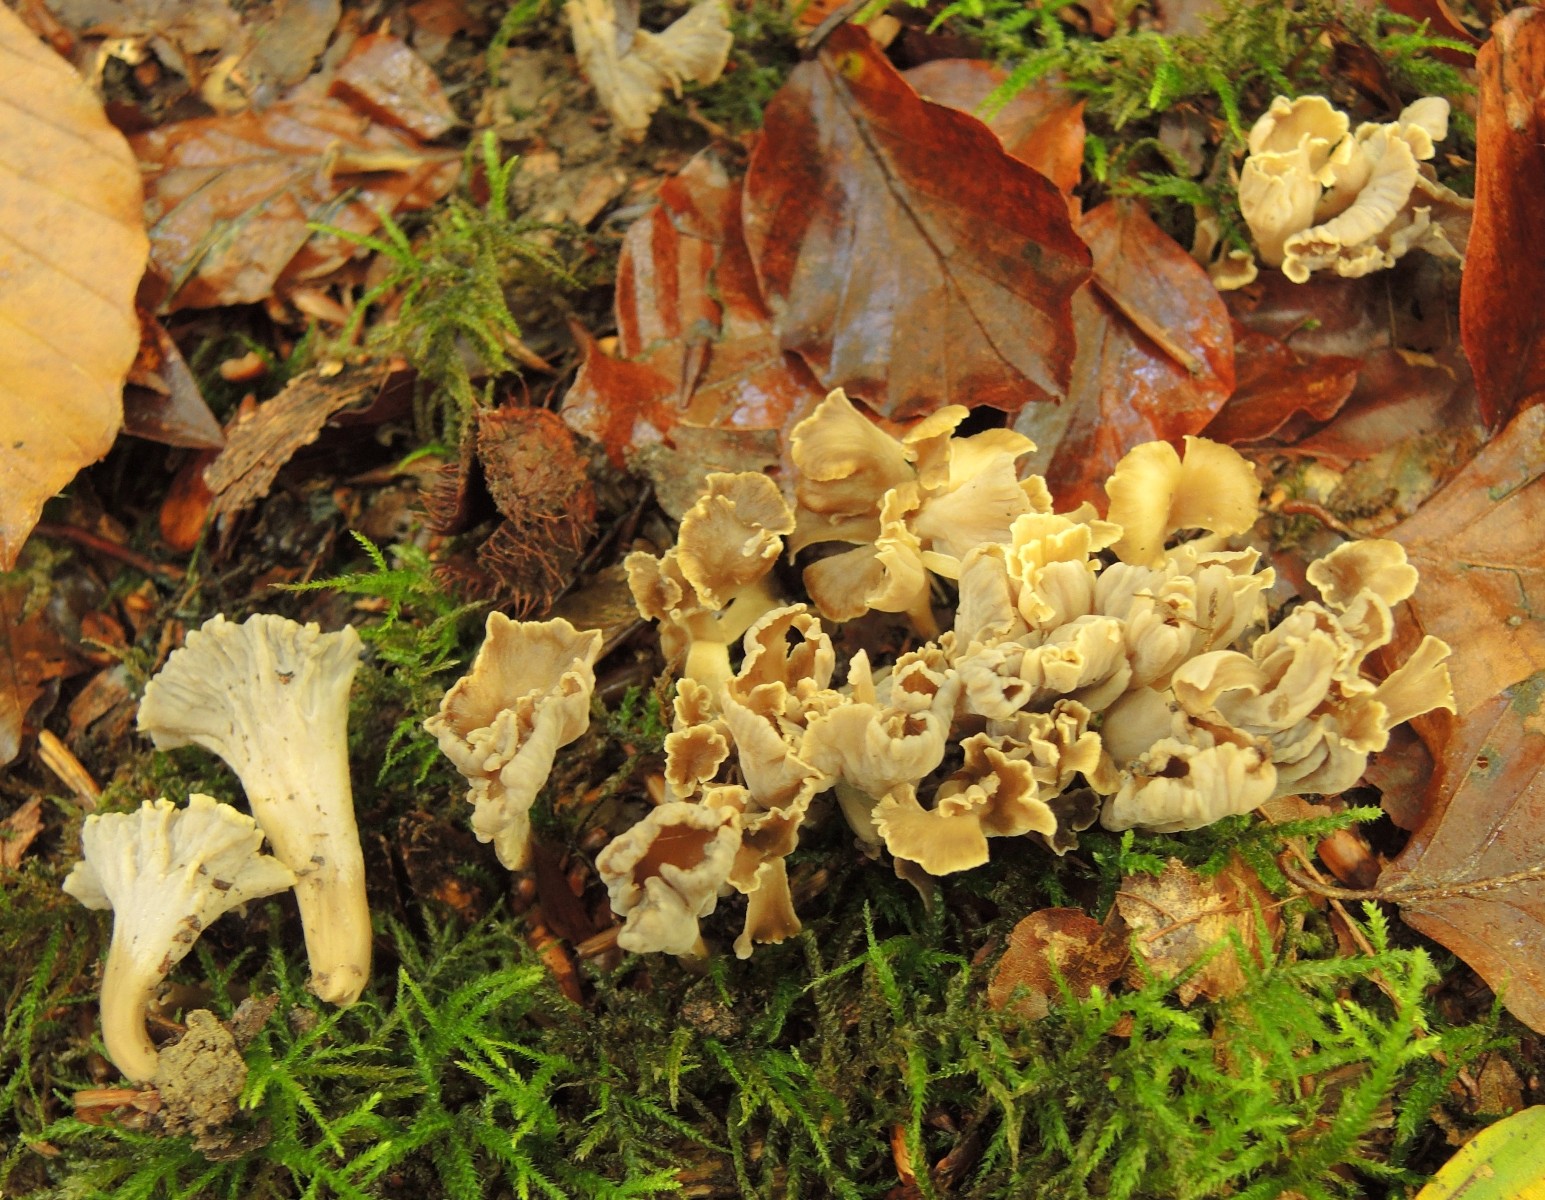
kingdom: Fungi
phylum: Basidiomycota
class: Agaricomycetes
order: Cantharellales
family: Hydnaceae
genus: Craterellus
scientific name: Craterellus undulatus
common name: liden kantarel
